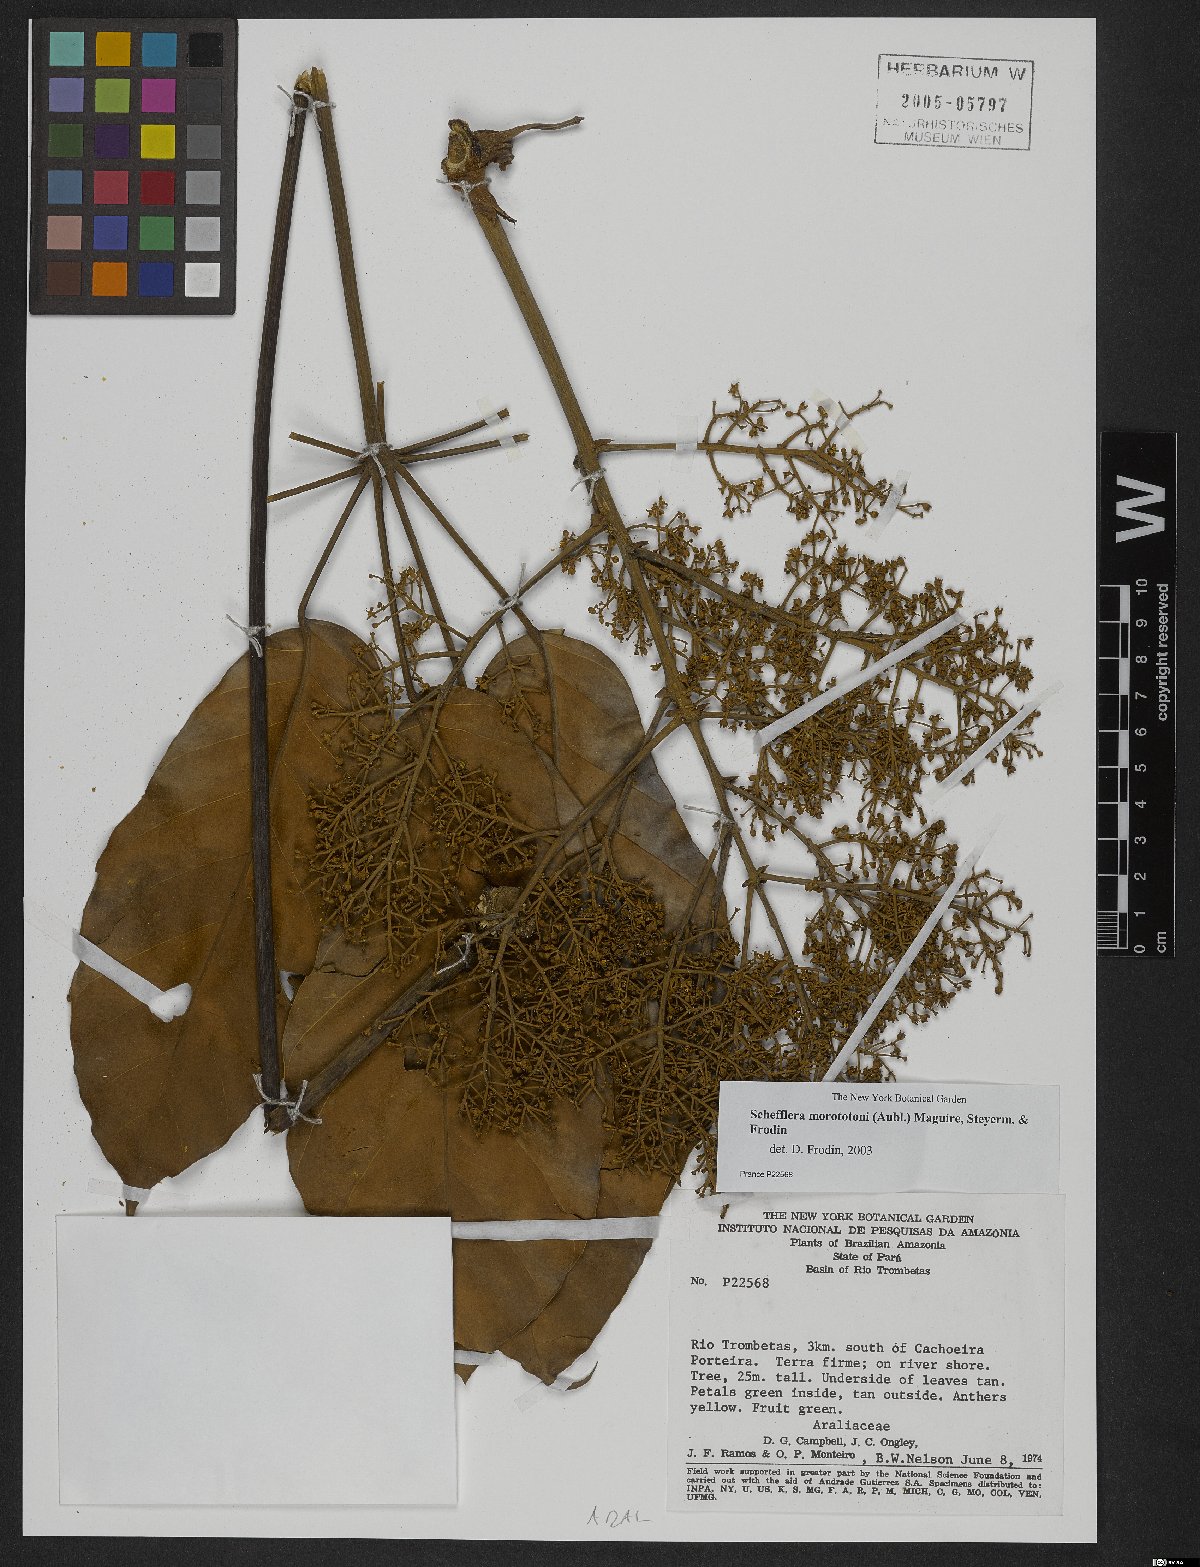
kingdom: Plantae
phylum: Tracheophyta
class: Magnoliopsida
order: Apiales
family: Araliaceae
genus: Didymopanax
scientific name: Didymopanax morototoni
